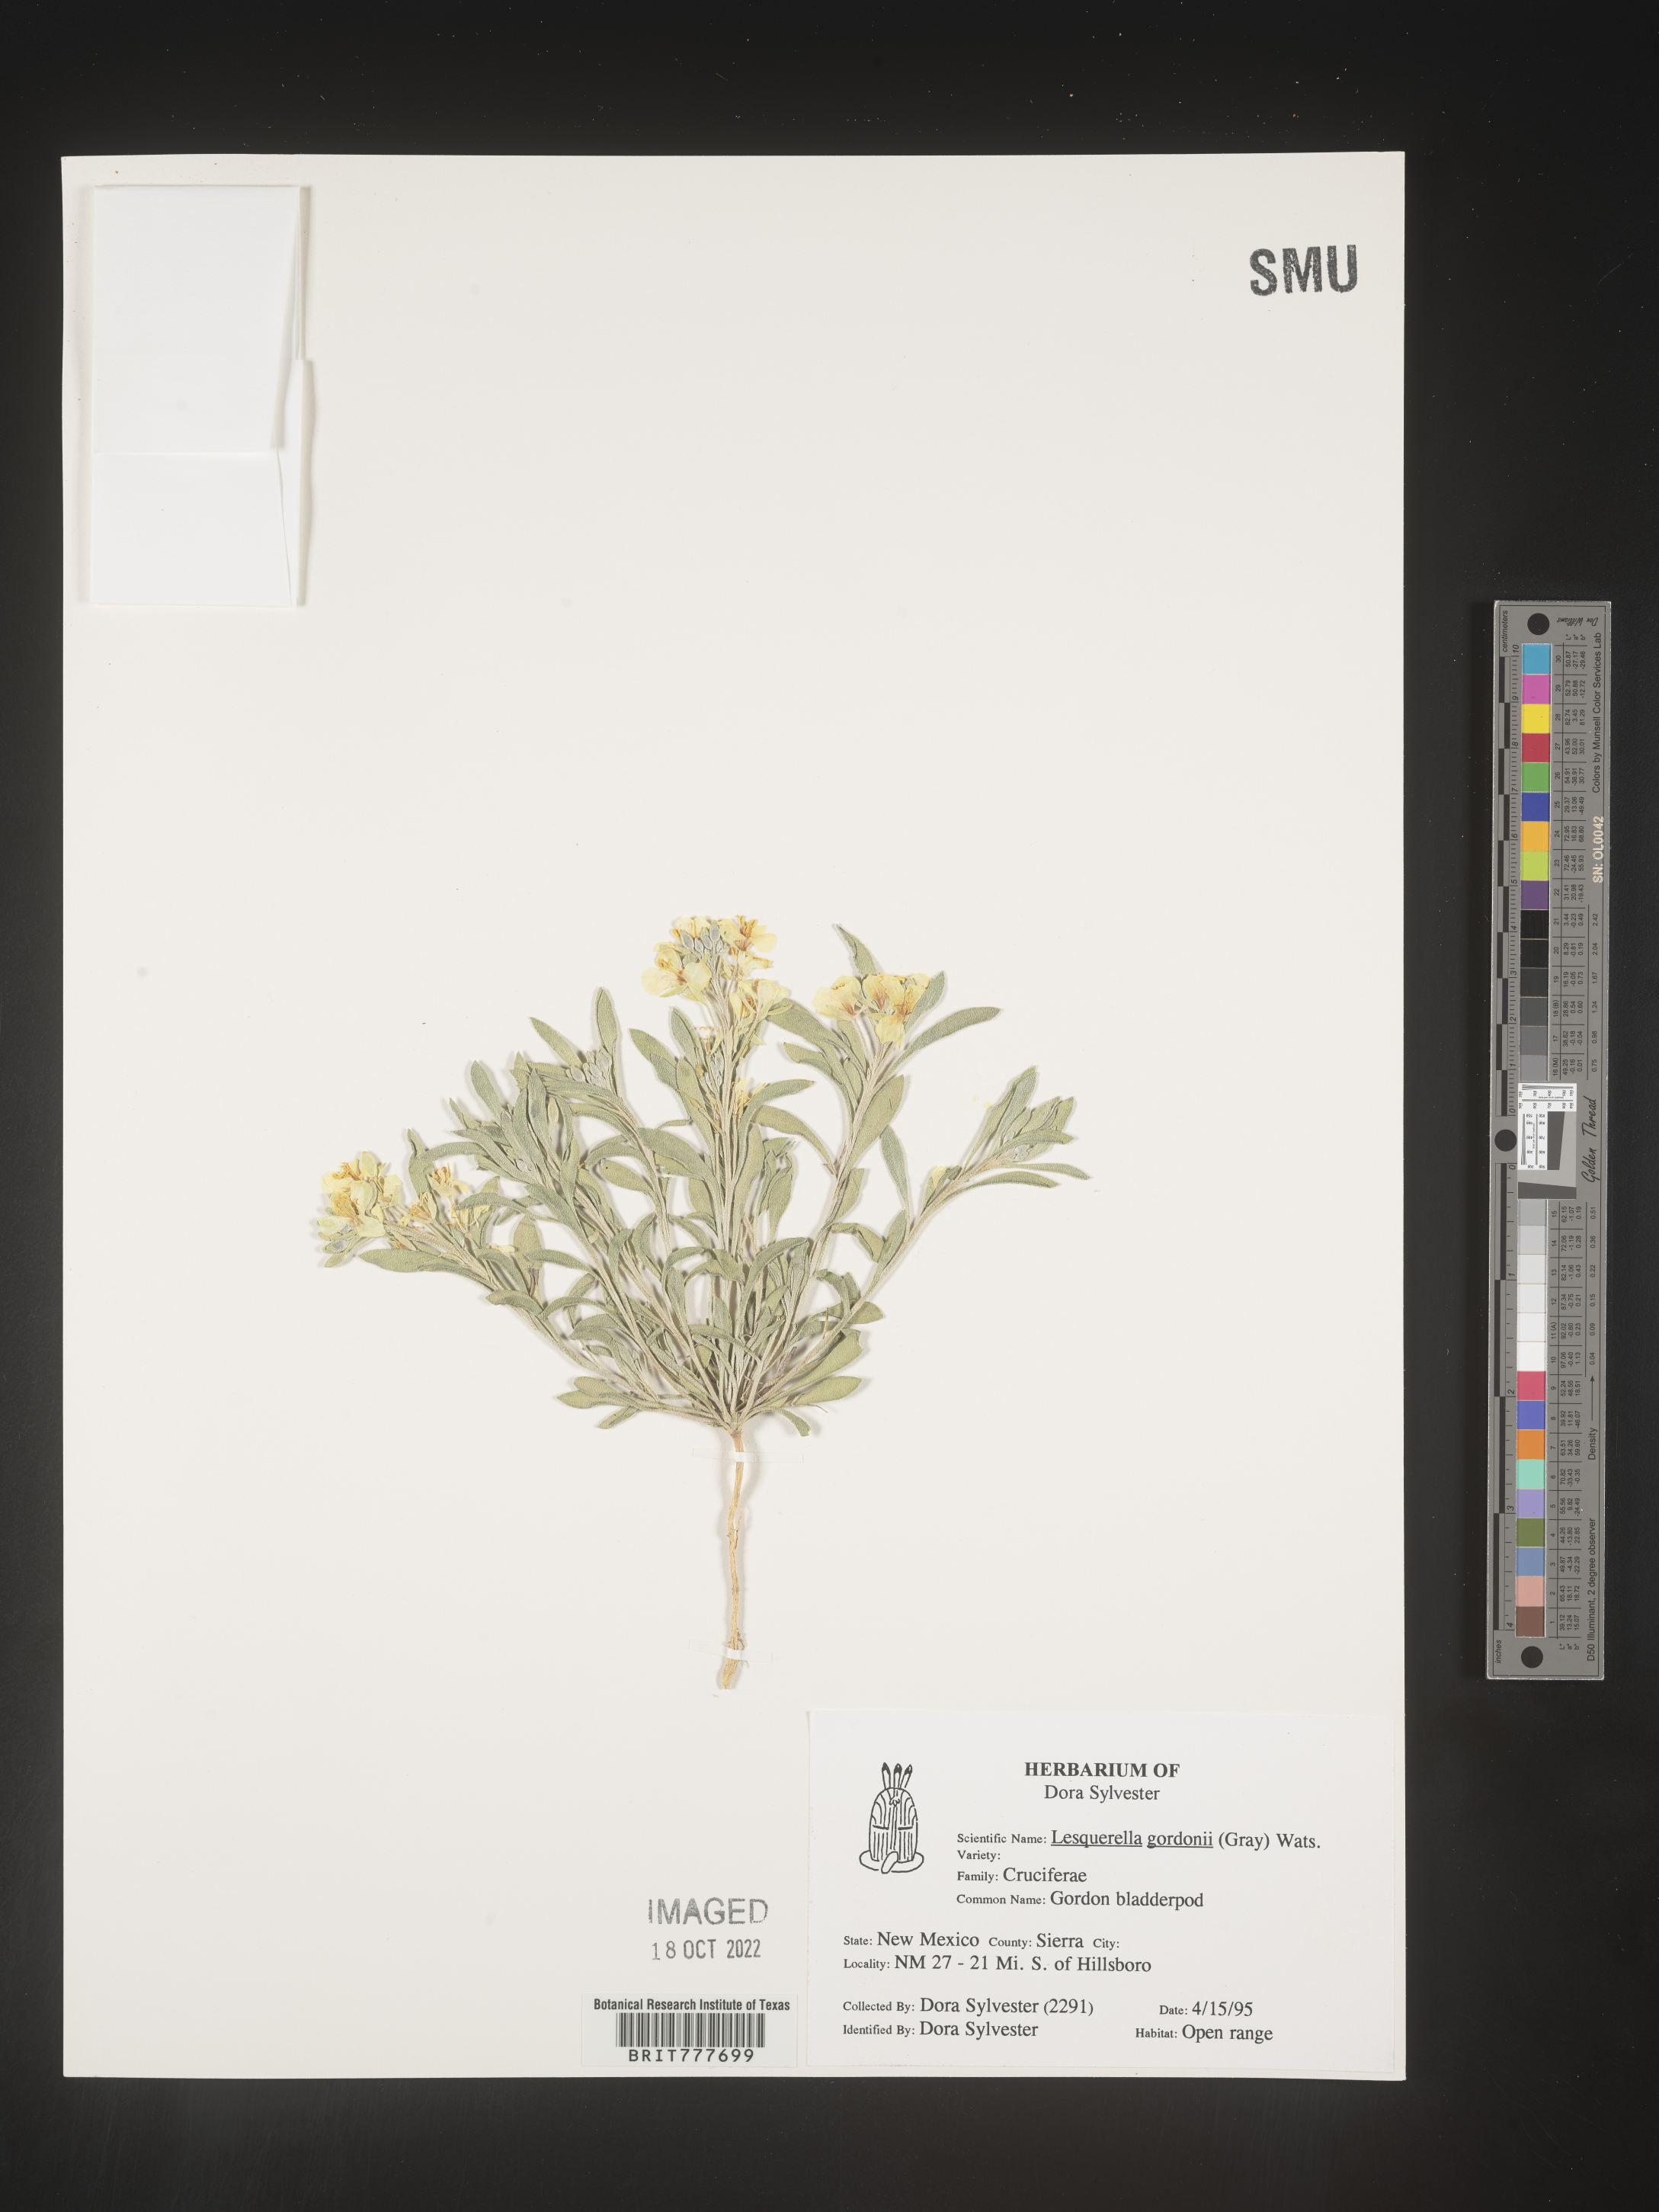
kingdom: Chromista
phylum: Cercozoa
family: Psammonobiotidae
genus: Lesquerella
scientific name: Lesquerella
